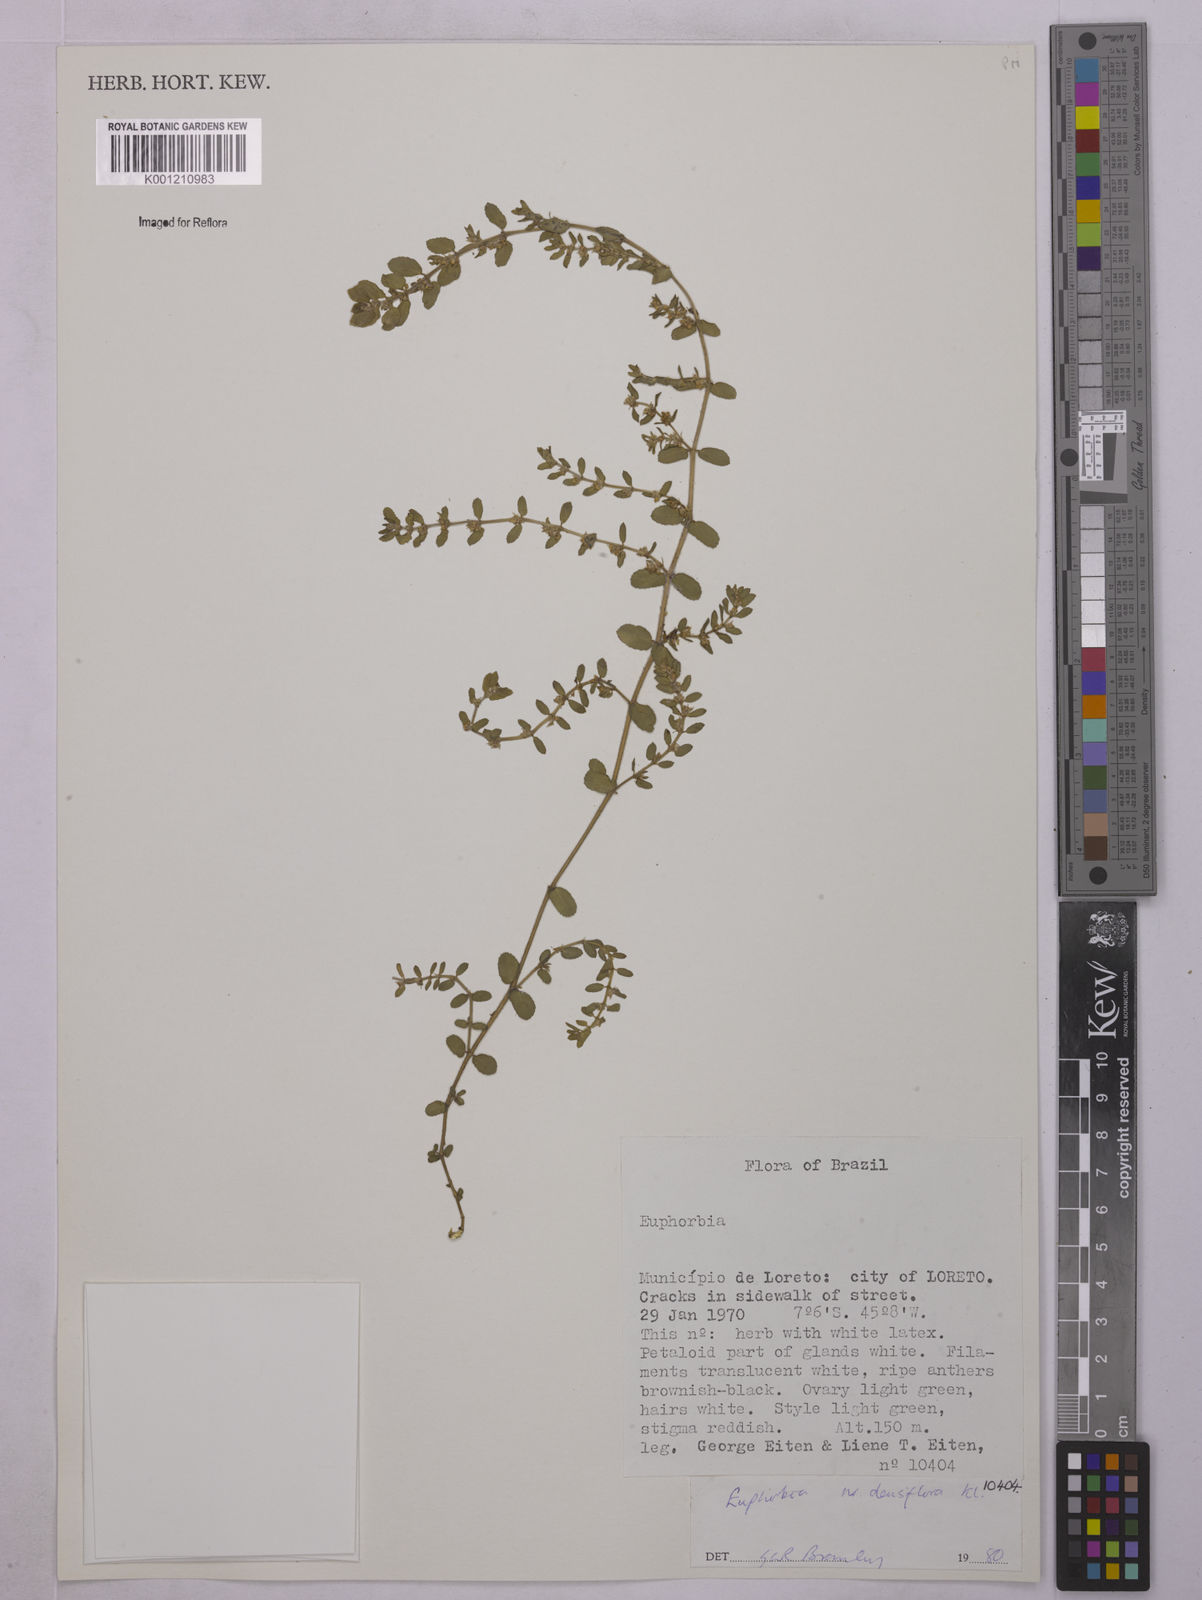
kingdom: Plantae
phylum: Tracheophyta
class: Magnoliopsida
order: Malpighiales
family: Euphorbiaceae
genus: Euphorbia
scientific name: Euphorbia densiflora
